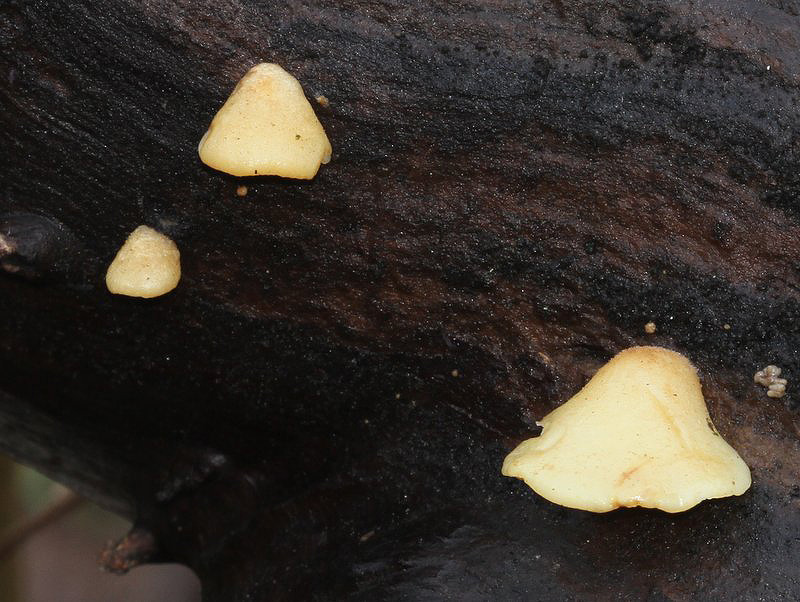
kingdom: Fungi
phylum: Basidiomycota
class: Agaricomycetes
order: Agaricales
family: Crepidotaceae
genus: Crepidotus
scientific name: Crepidotus mollis
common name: blød muslingesvamp
